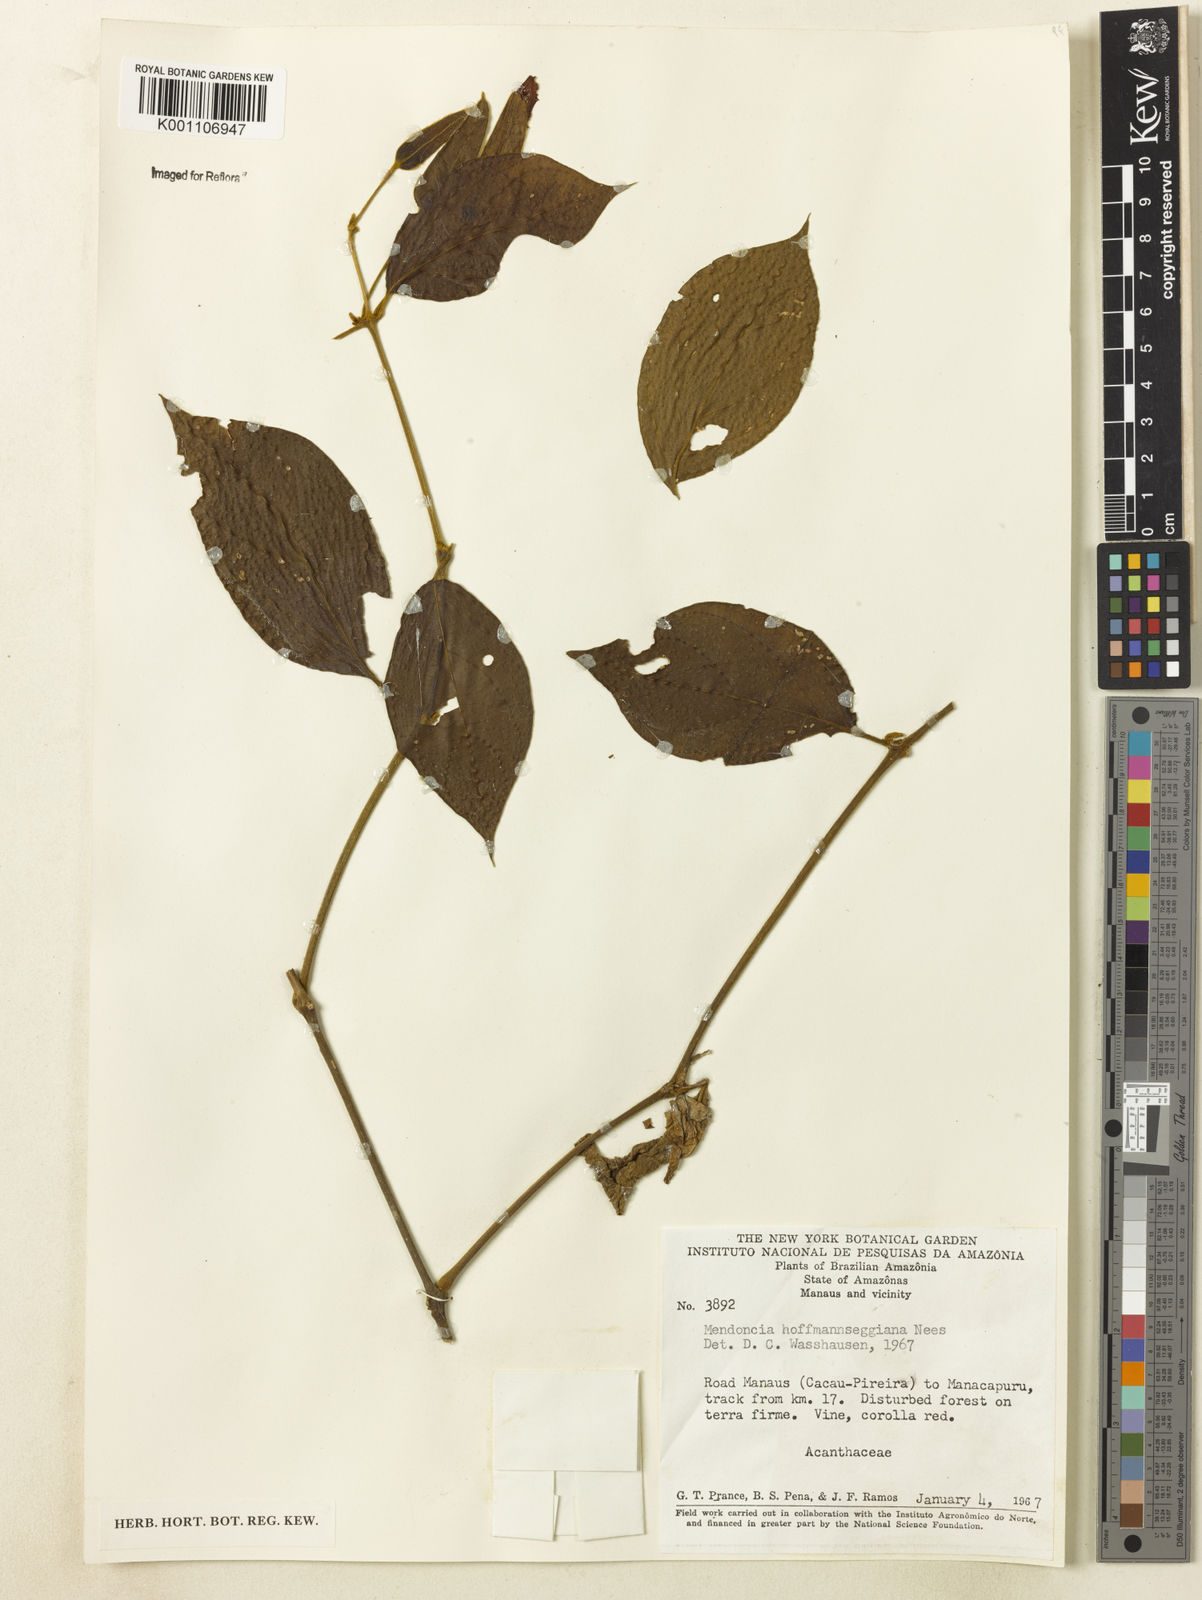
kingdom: Plantae
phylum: Tracheophyta
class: Magnoliopsida
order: Lamiales
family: Acanthaceae
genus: Mendoncia
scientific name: Mendoncia hoffmannseggiana
